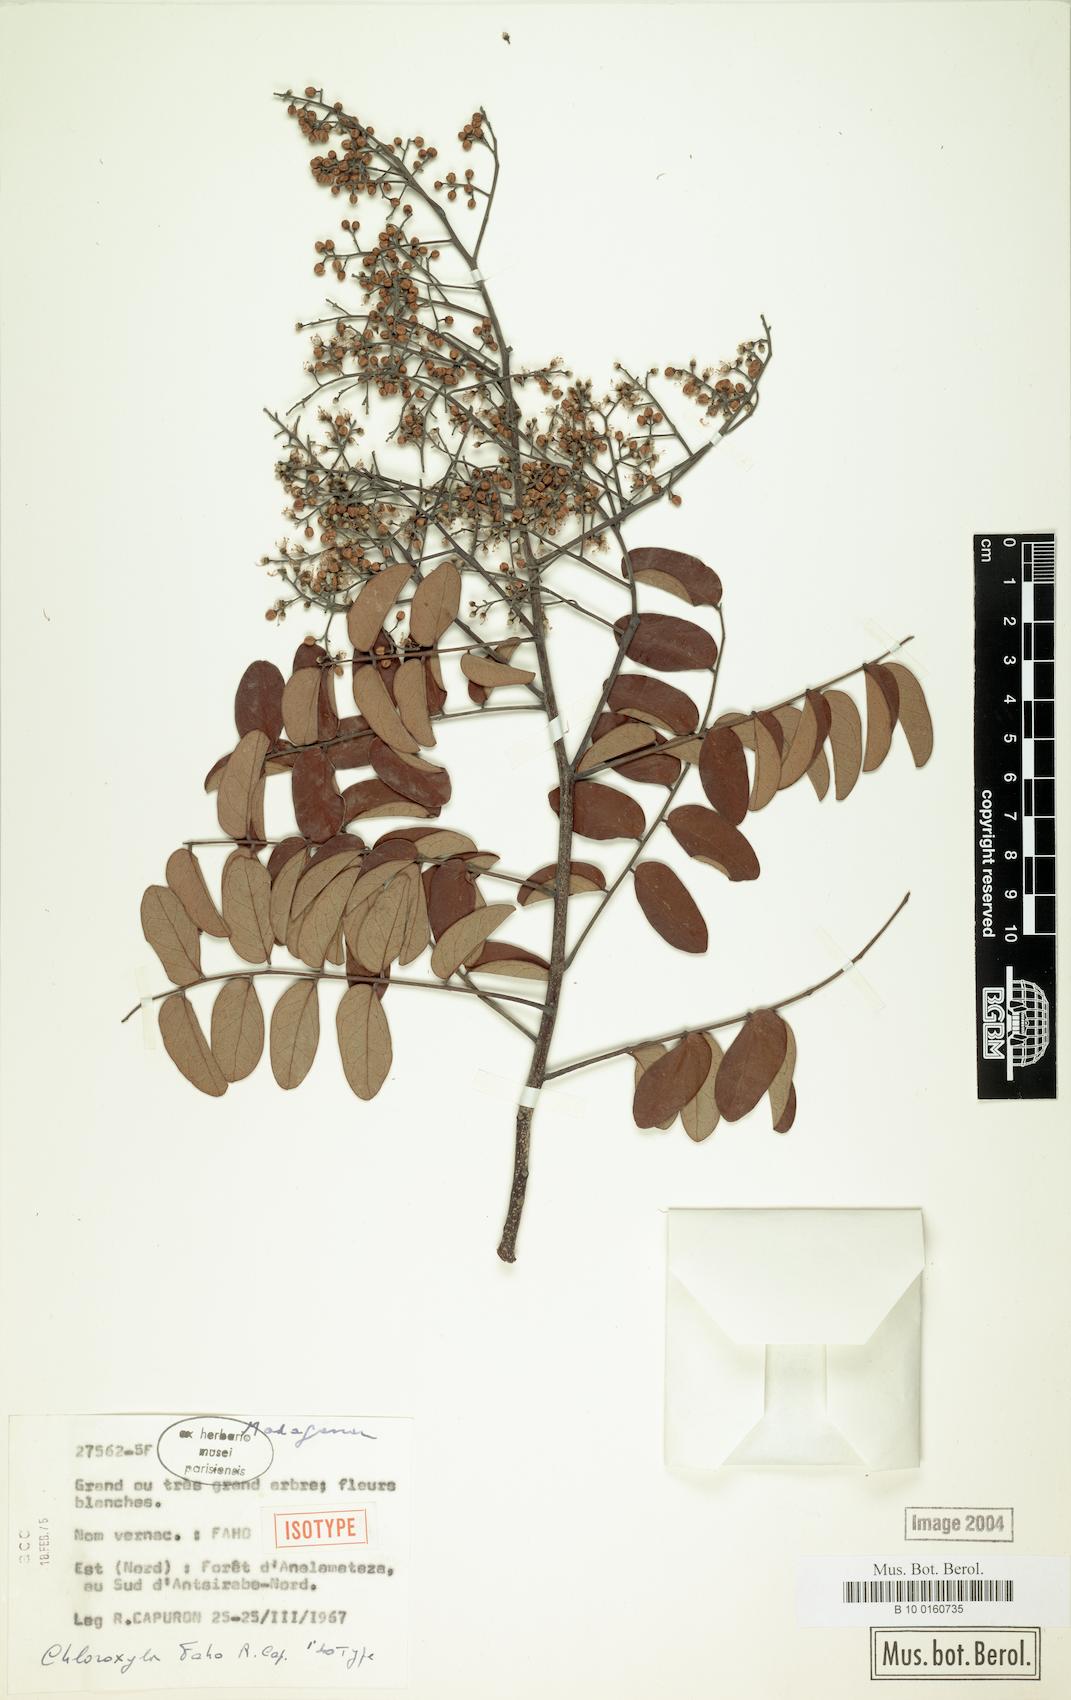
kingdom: Plantae
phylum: Tracheophyta
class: Magnoliopsida
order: Sapindales
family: Rutaceae
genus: Chloroxylon
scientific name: Chloroxylon faho
